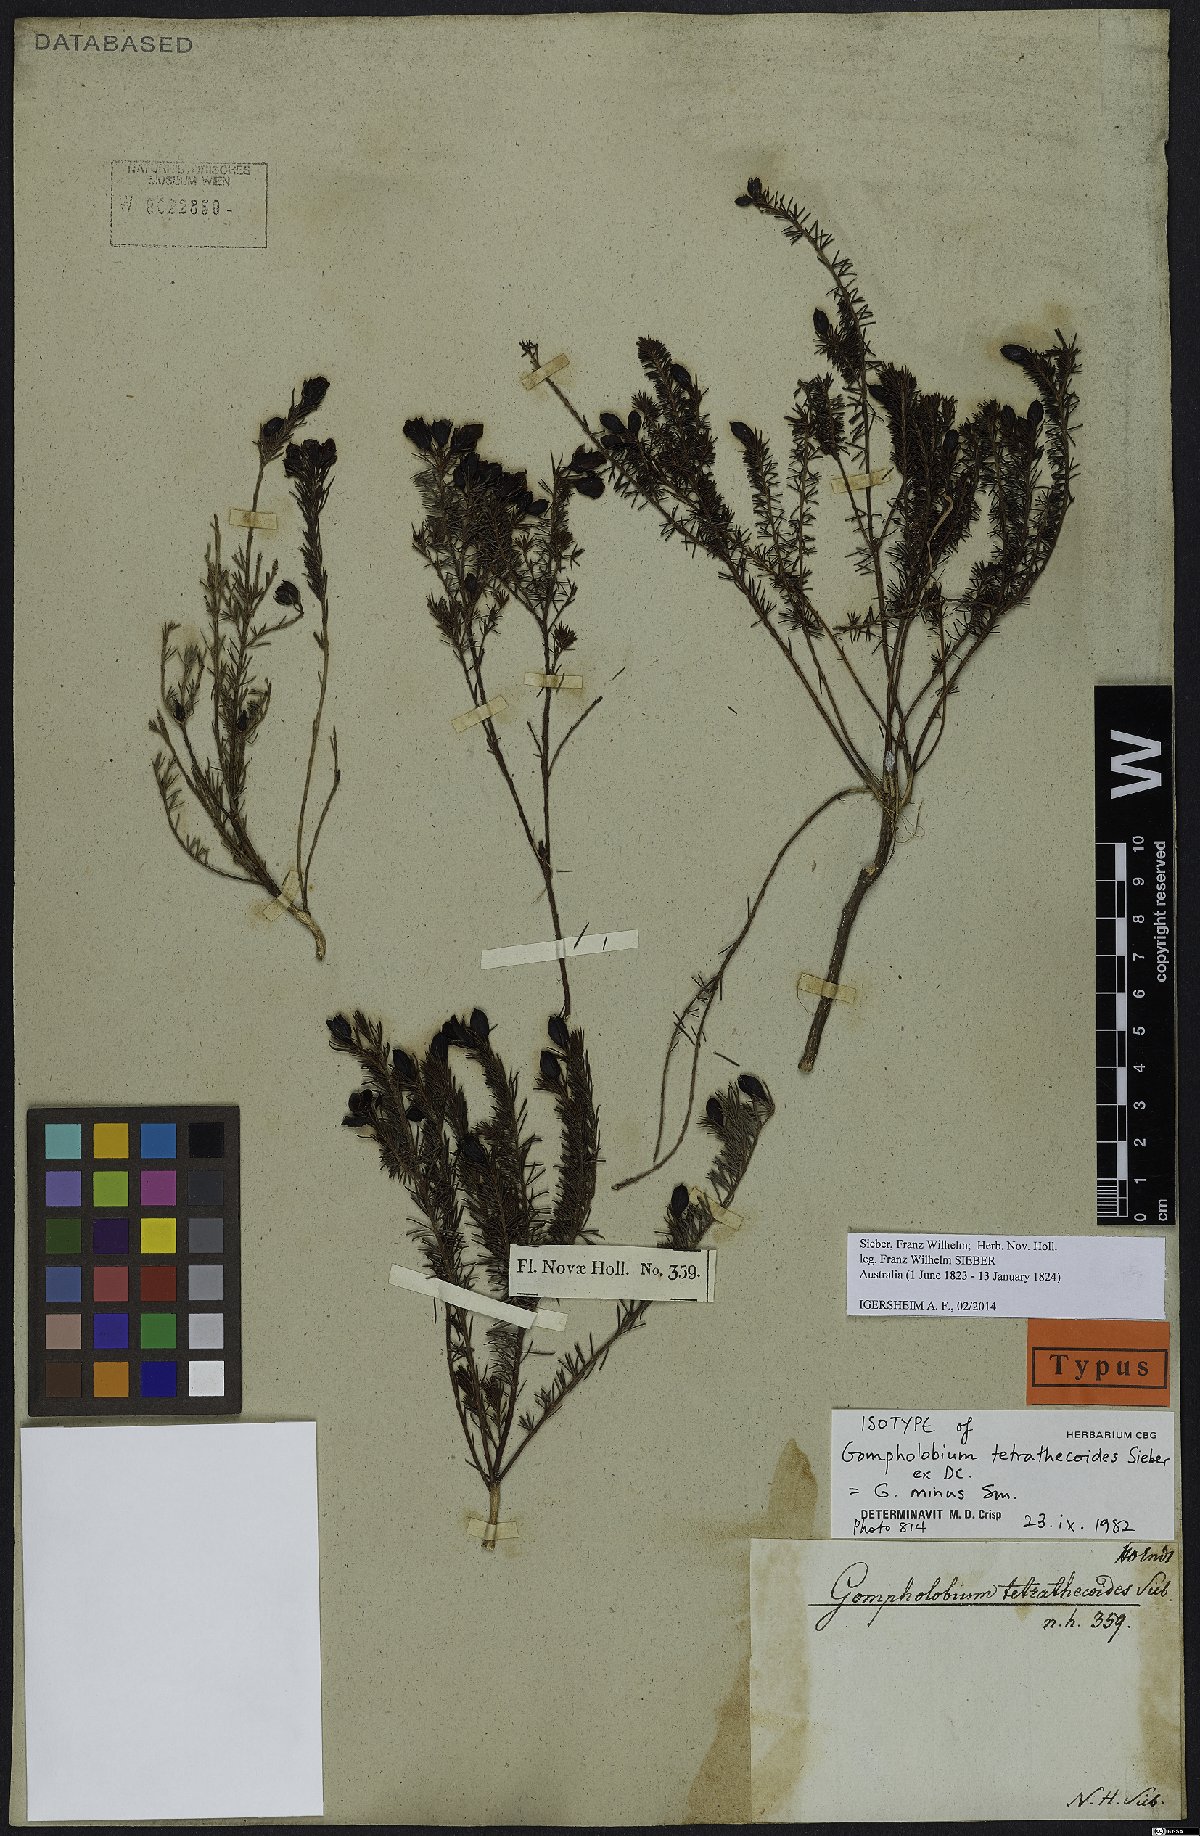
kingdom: Plantae
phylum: Tracheophyta
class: Magnoliopsida
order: Fabales
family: Fabaceae
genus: Gompholobium
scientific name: Gompholobium minus
